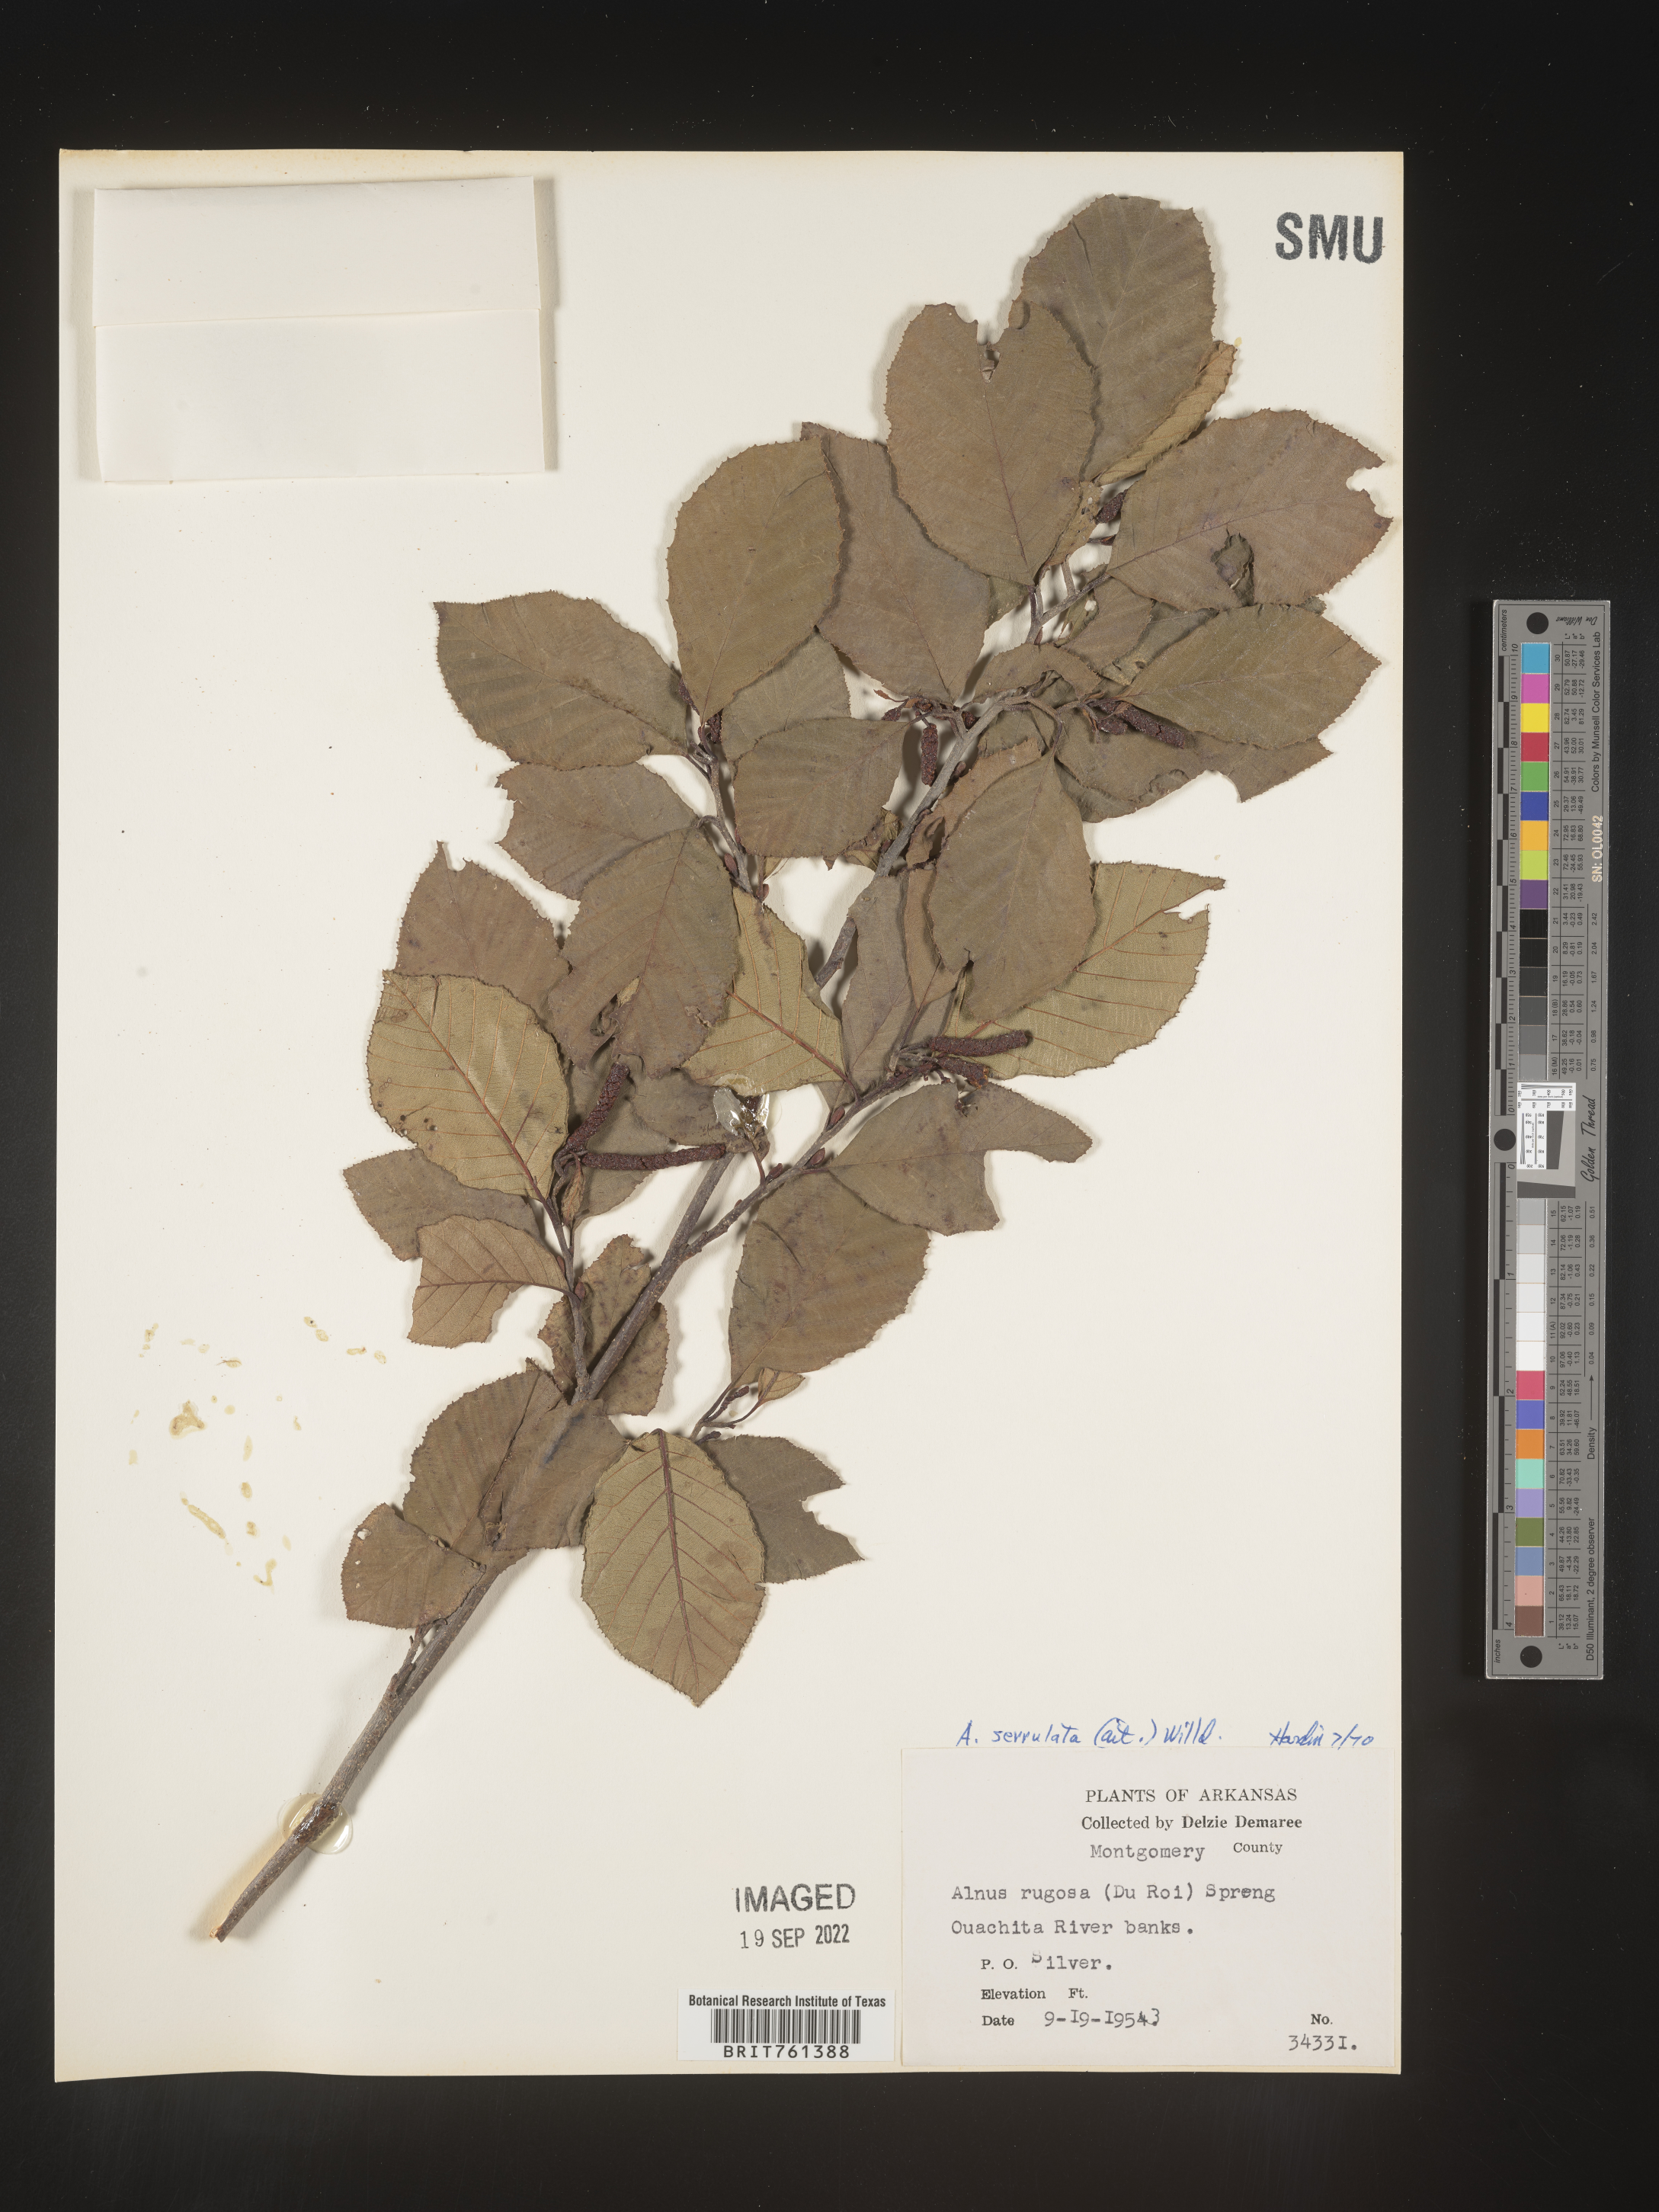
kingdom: Plantae
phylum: Tracheophyta
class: Magnoliopsida
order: Fagales
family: Betulaceae
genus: Alnus
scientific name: Alnus serrulata
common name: Hazel alder
